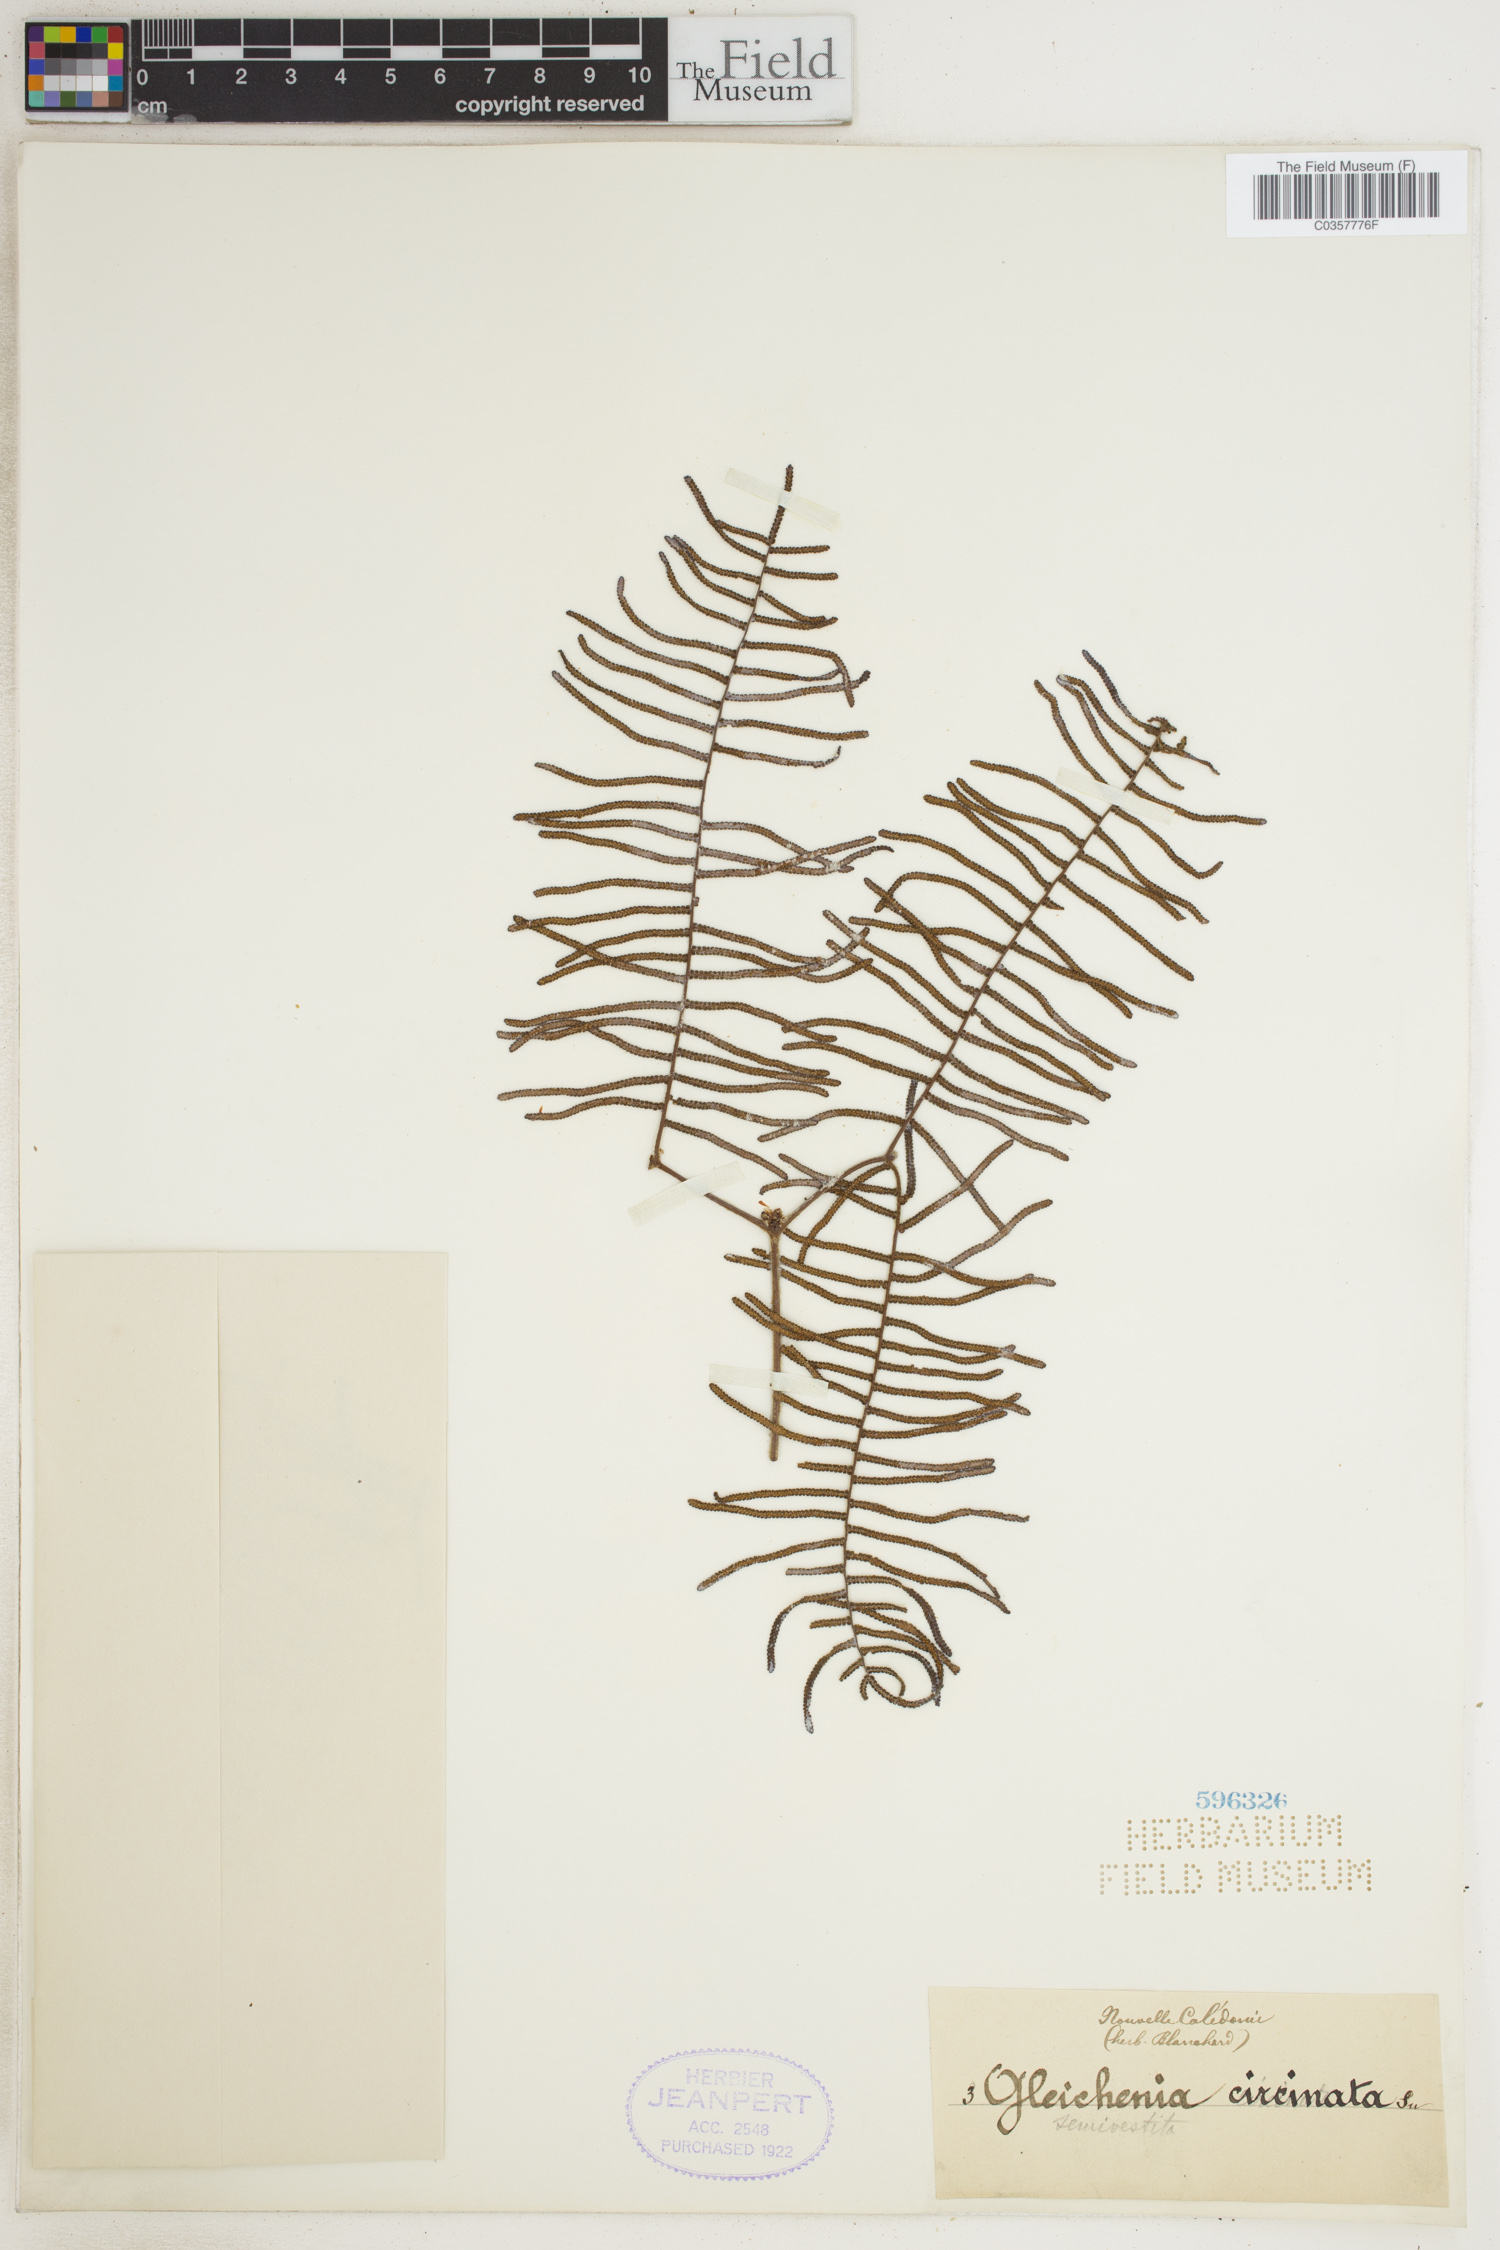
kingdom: Plantae
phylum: Tracheophyta
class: Polypodiopsida
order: Gleicheniales
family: Gleicheniaceae
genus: Gleichenia
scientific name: Gleichenia circinnata
